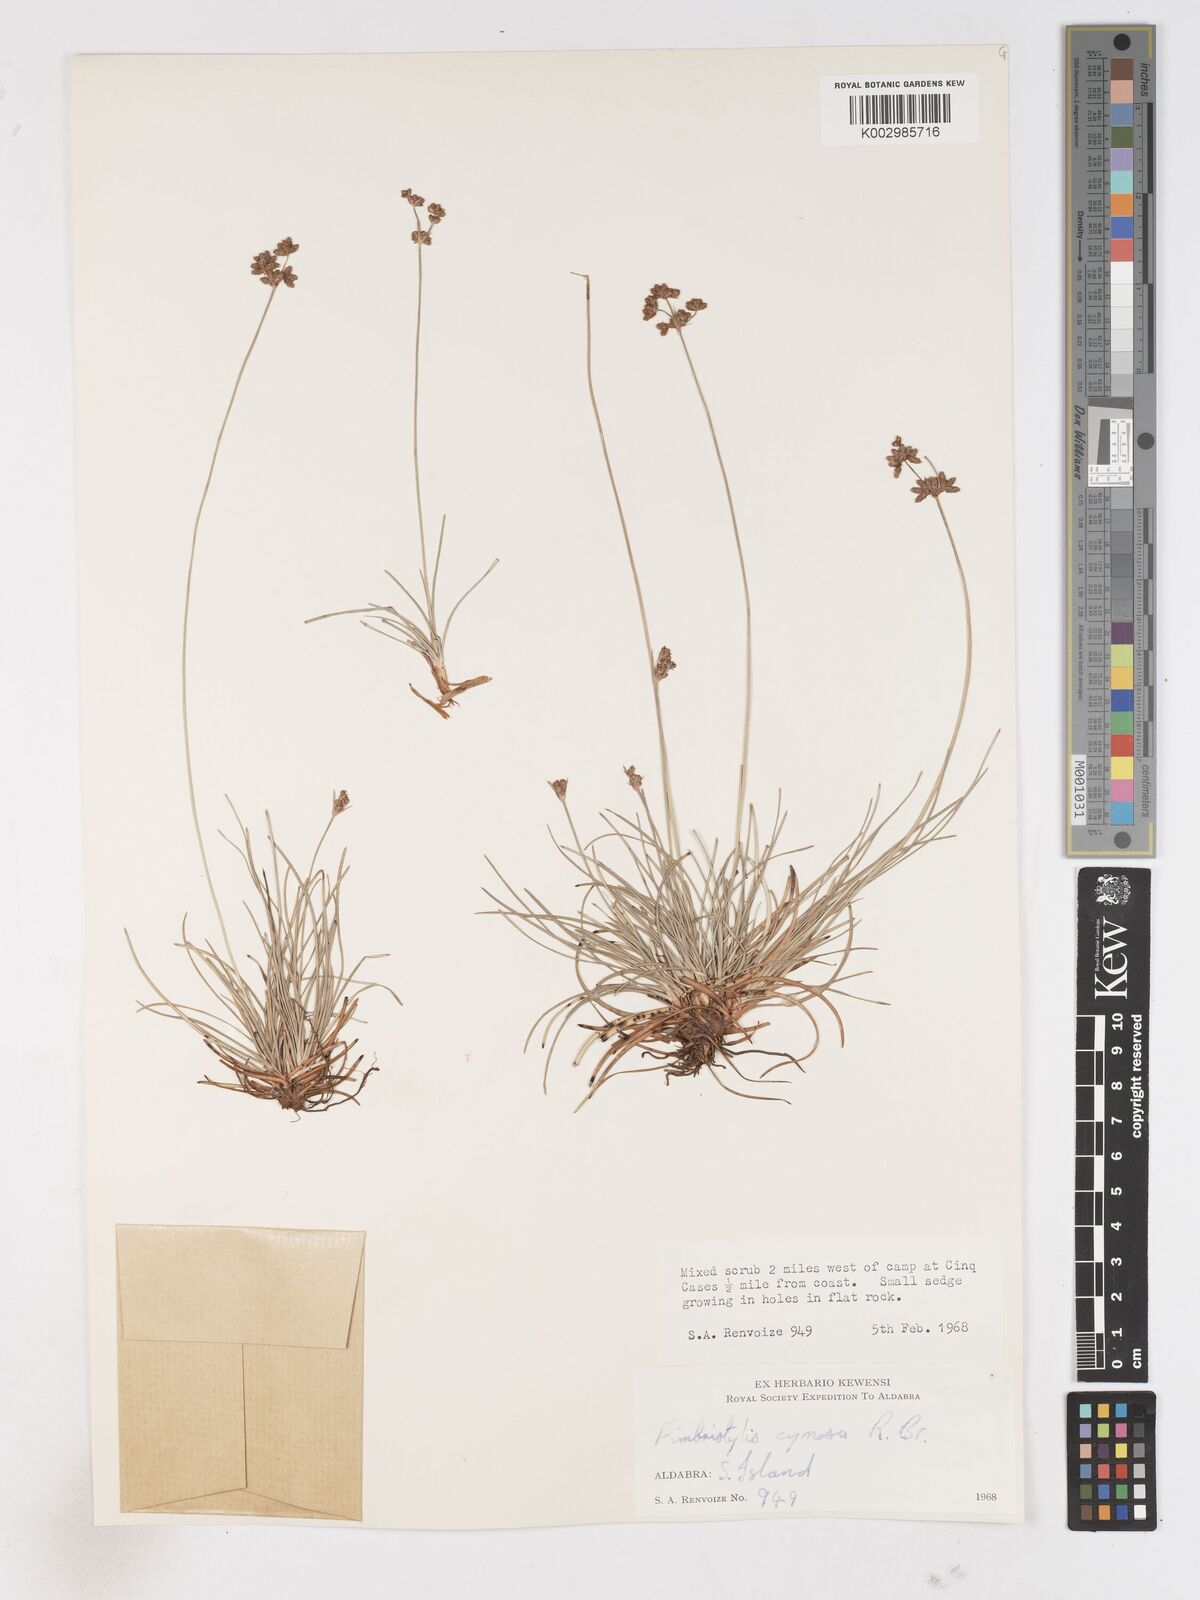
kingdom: Plantae
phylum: Tracheophyta
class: Liliopsida
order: Poales
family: Cyperaceae
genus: Fimbristylis
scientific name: Fimbristylis cymosa
